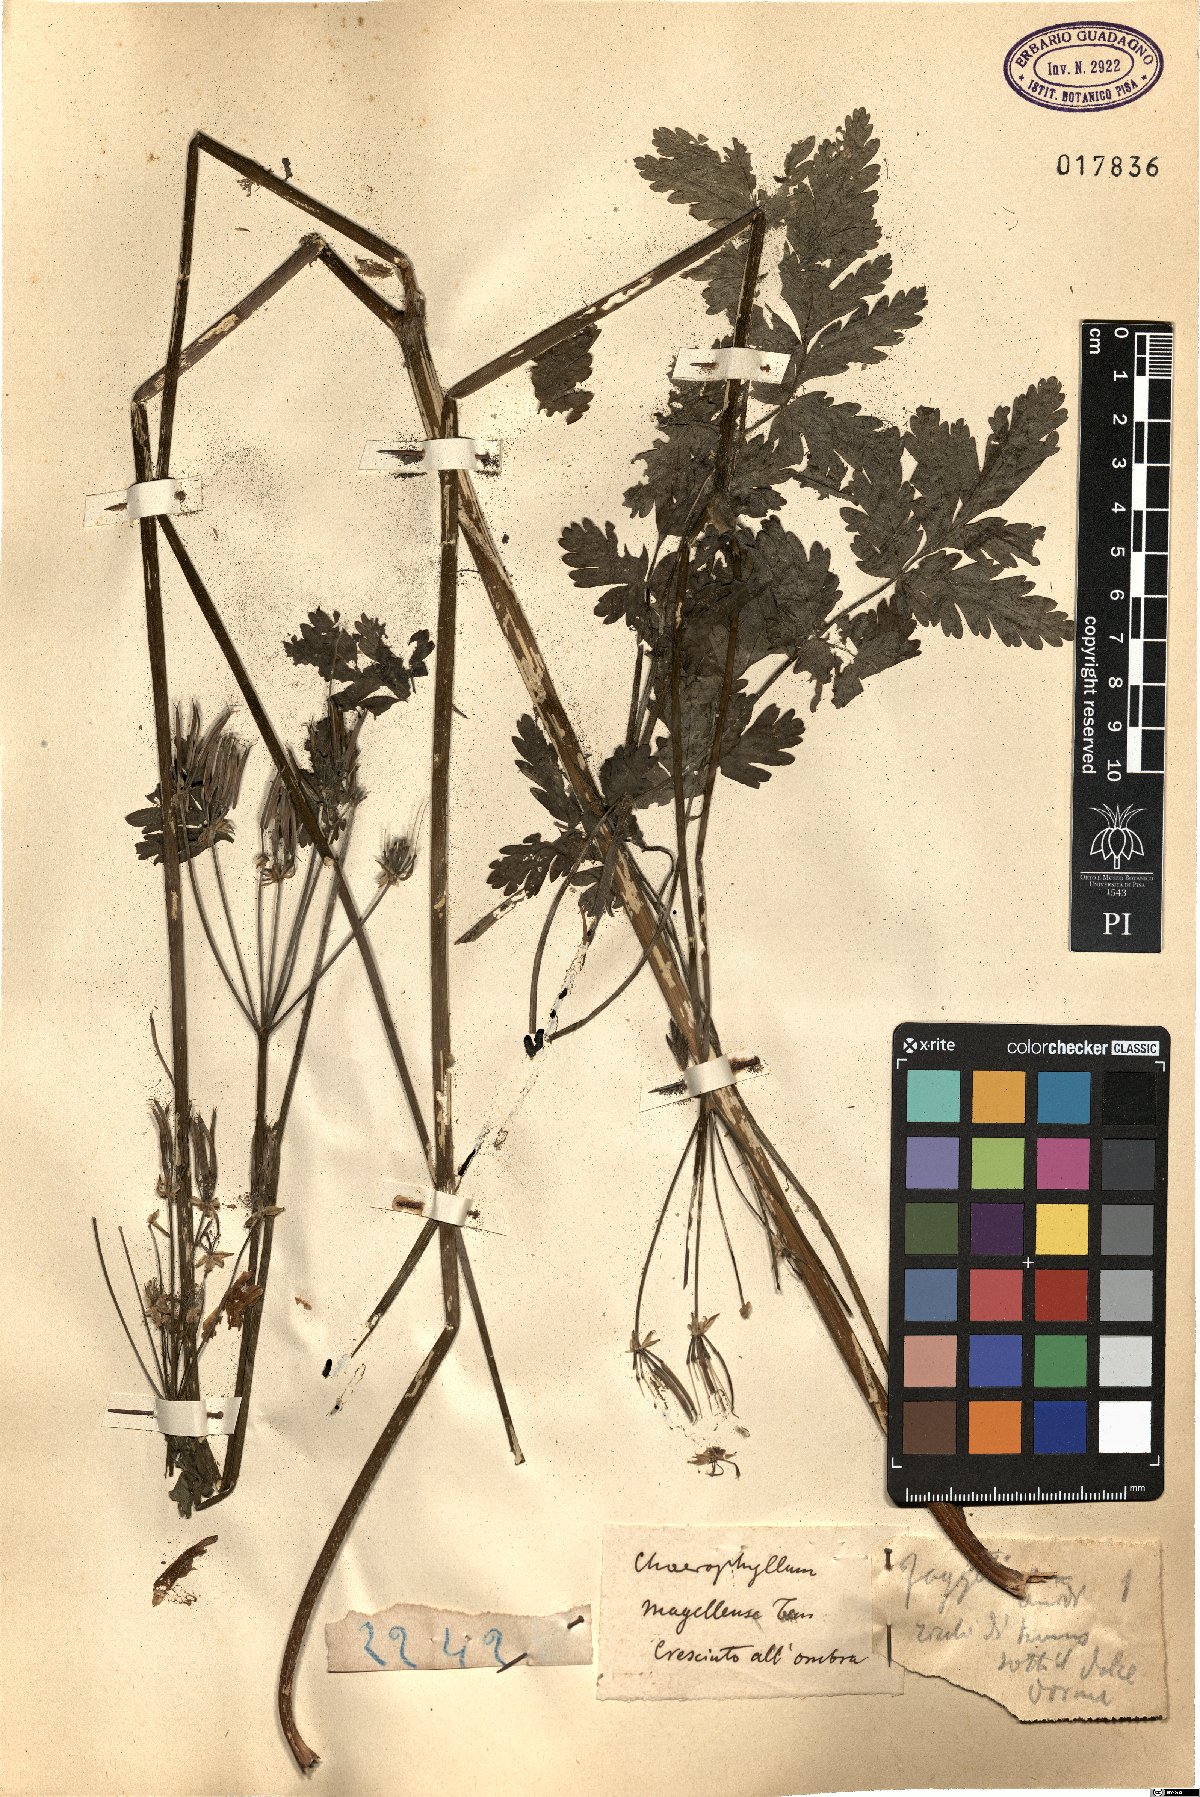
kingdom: Plantae
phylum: Tracheophyta
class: Magnoliopsida
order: Apiales
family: Apiaceae
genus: Chaerophyllum
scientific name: Chaerophyllum hirsutum
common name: Hairy chervil
